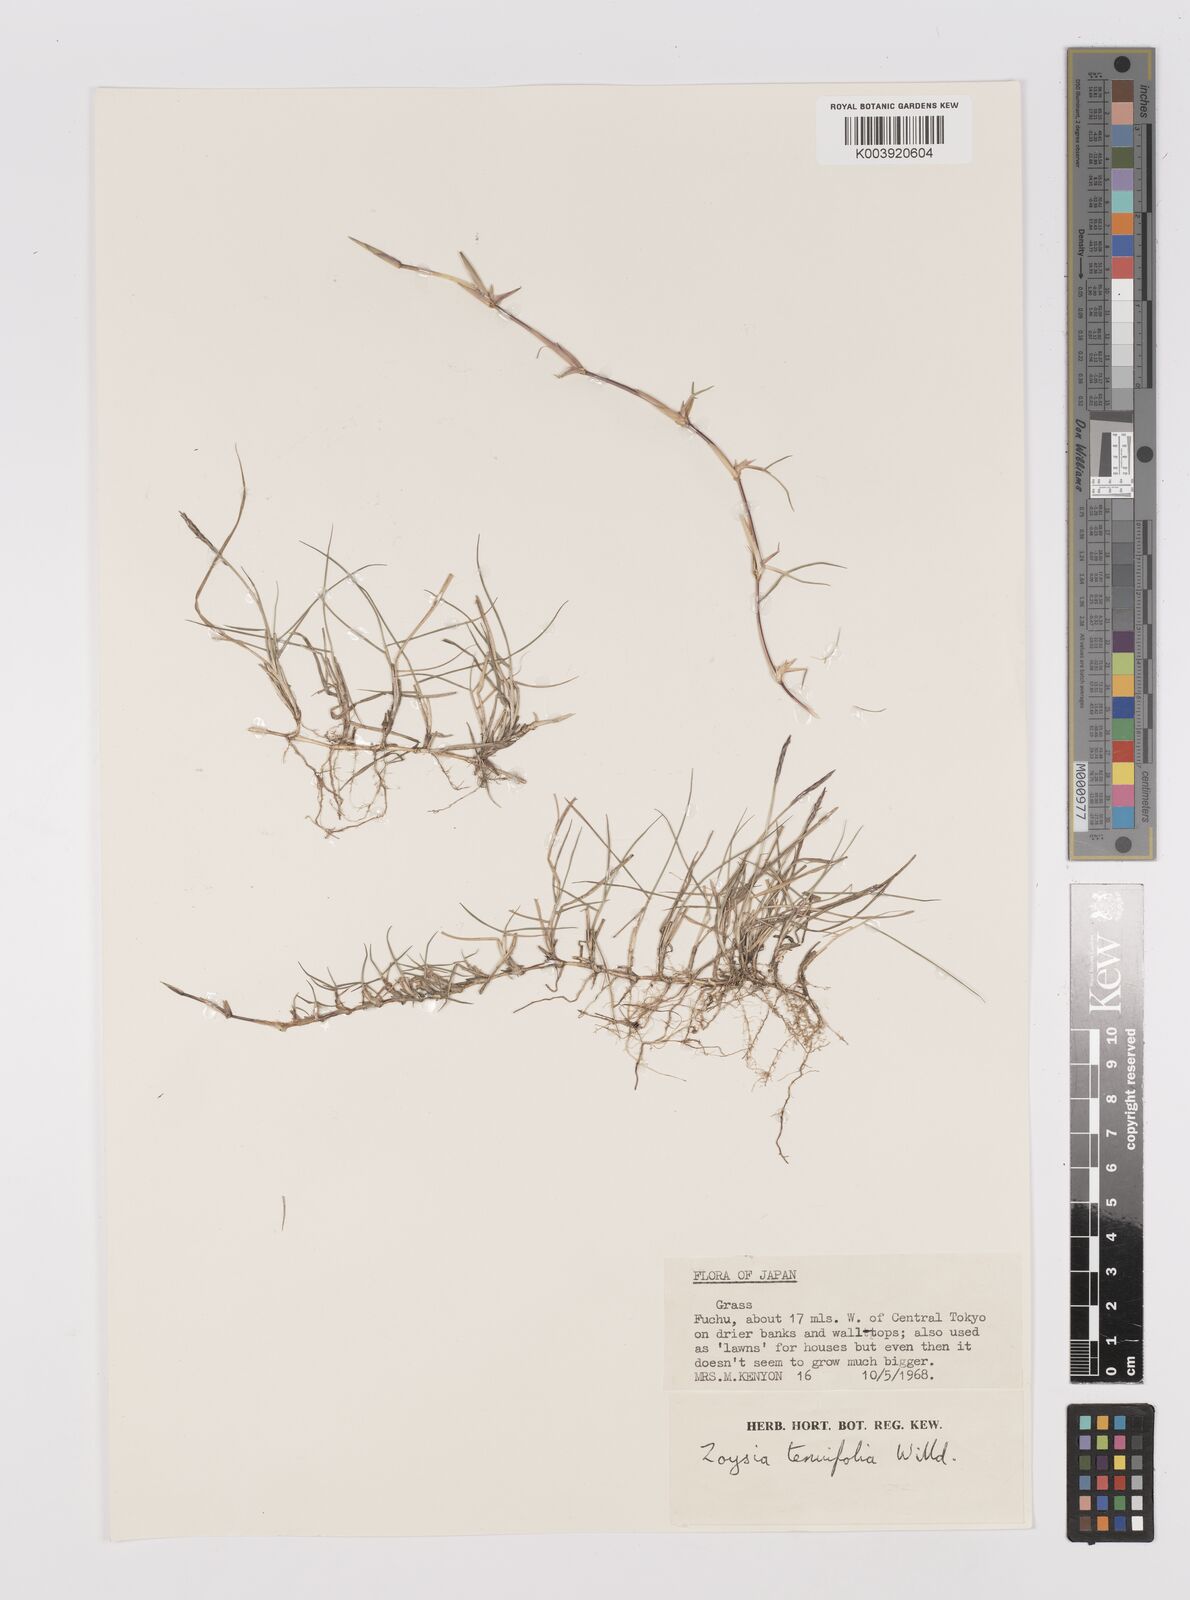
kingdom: Plantae
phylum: Tracheophyta
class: Liliopsida
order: Poales
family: Poaceae
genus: Zoysia
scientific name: Zoysia matrella
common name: Manila grass
